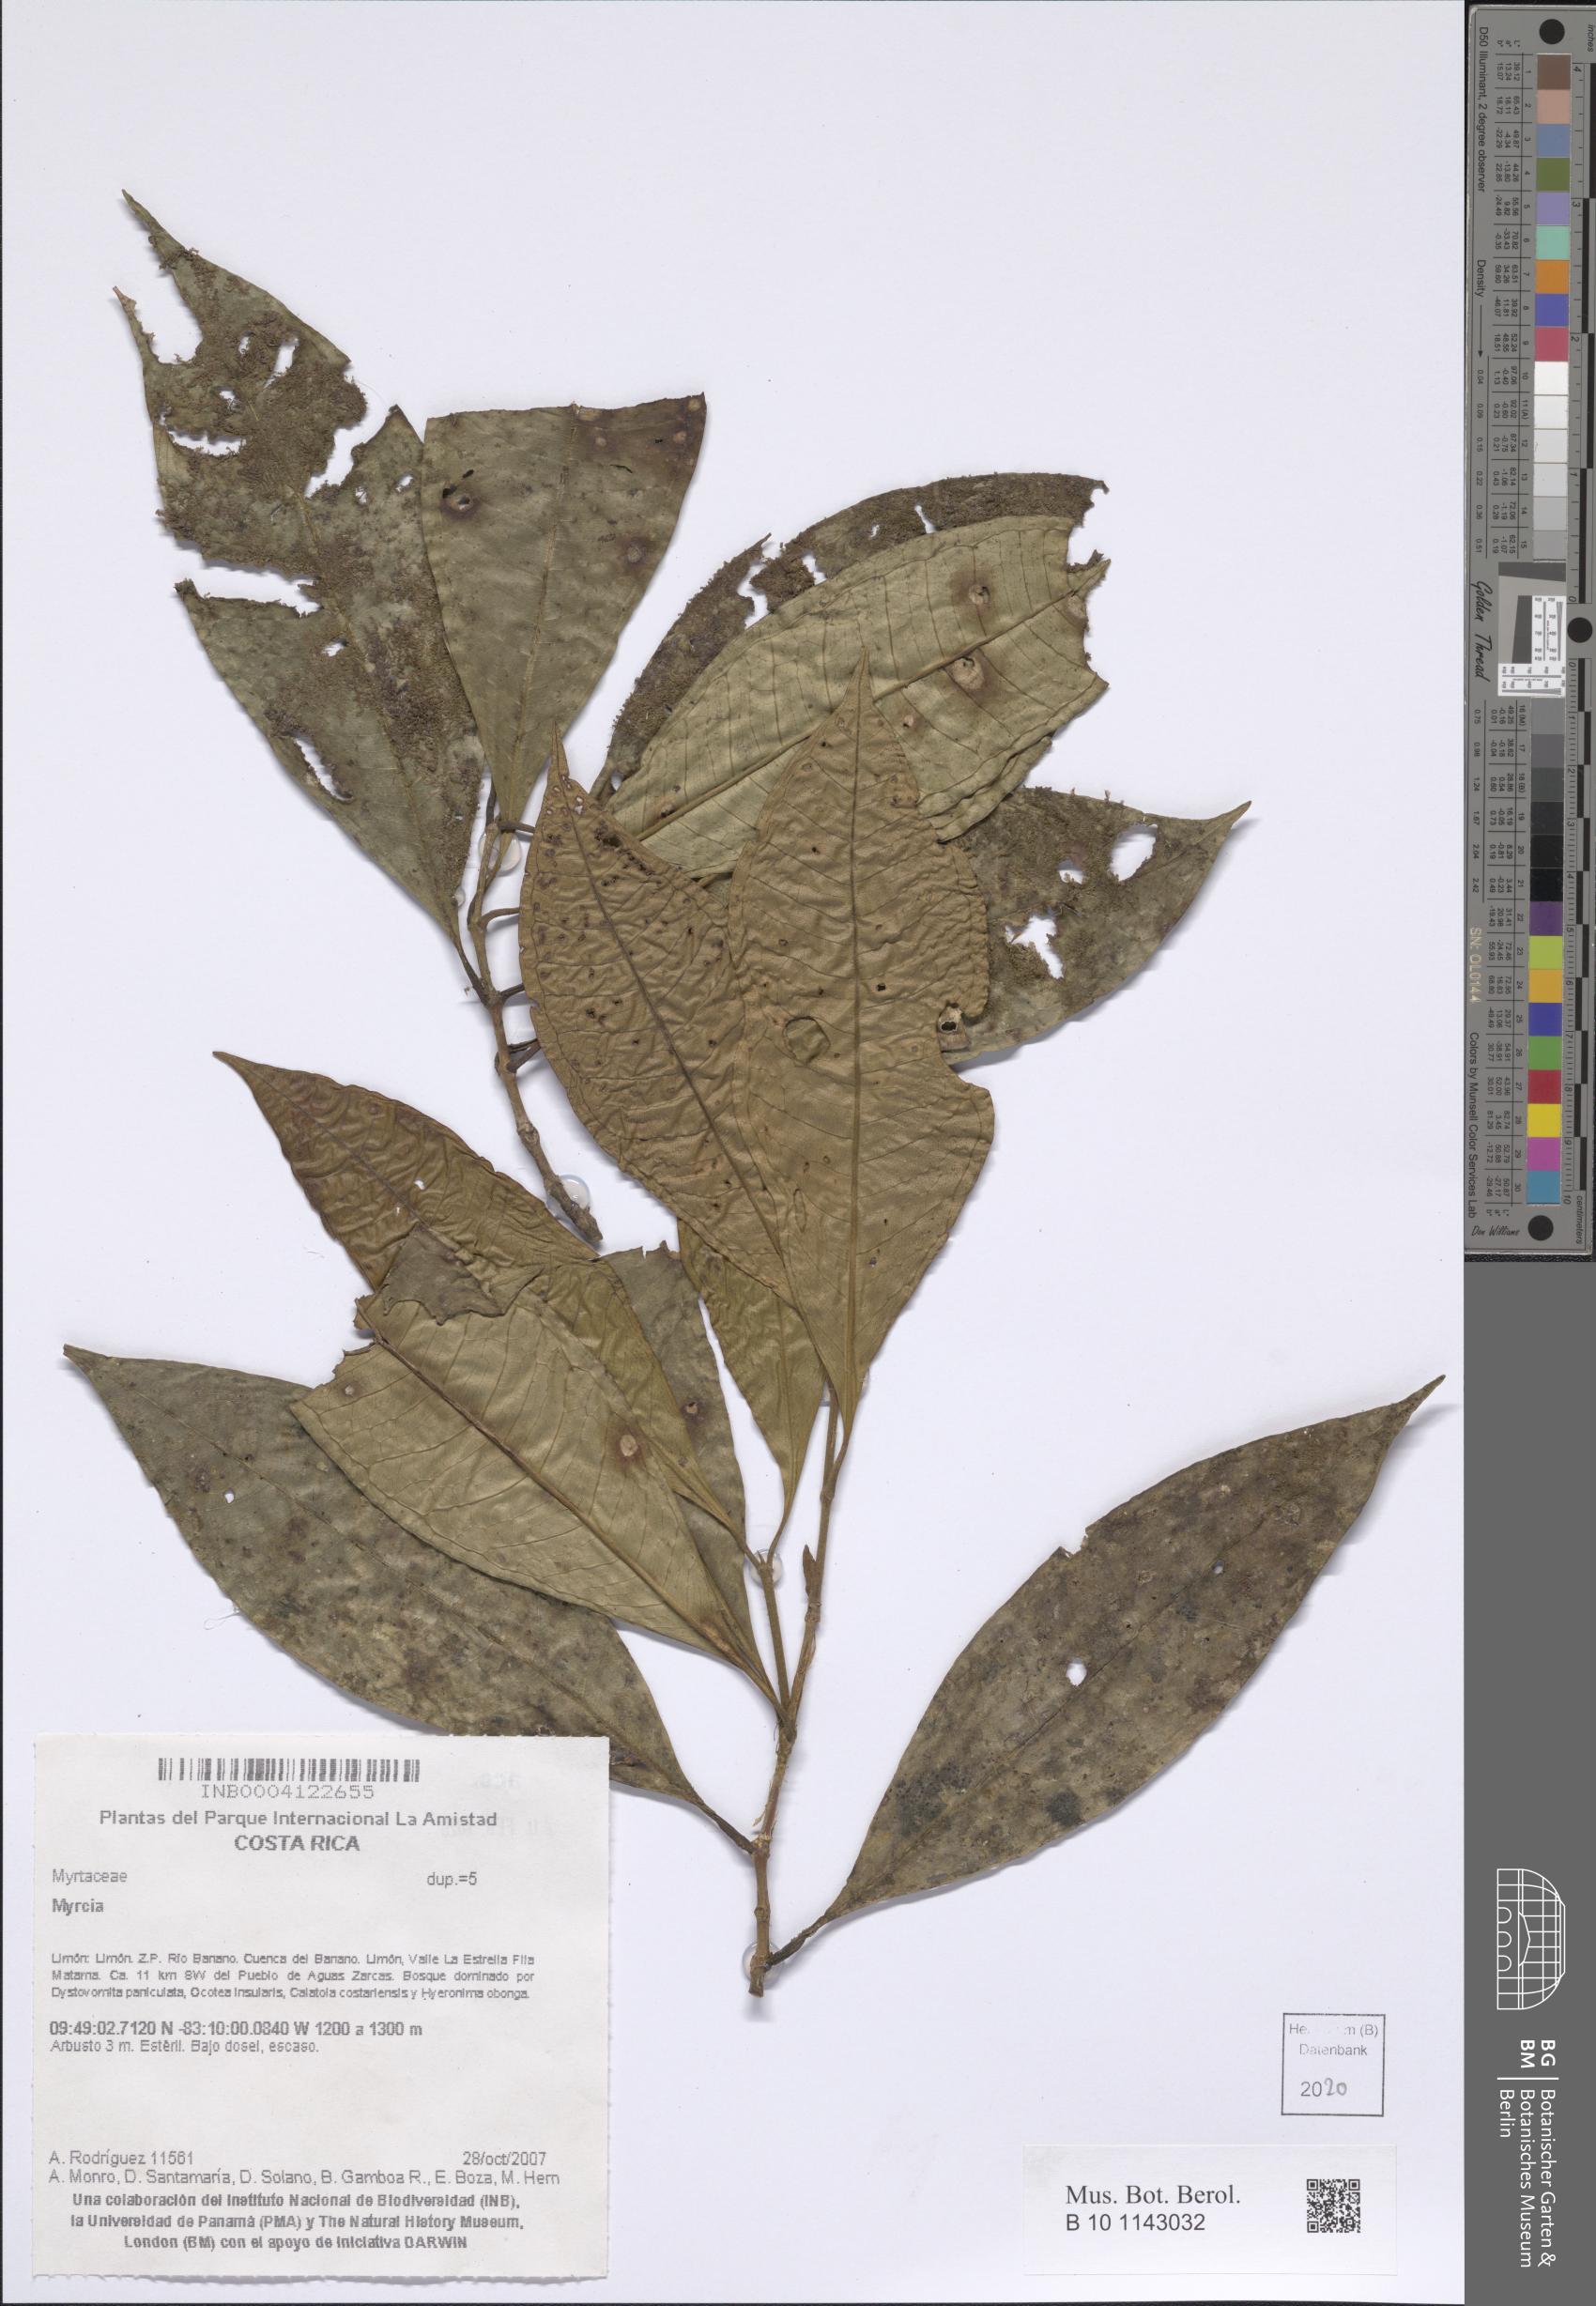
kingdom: Plantae
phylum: Tracheophyta
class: Magnoliopsida
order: Myrtales
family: Myrtaceae
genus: Myrcia
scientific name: Myrcia
